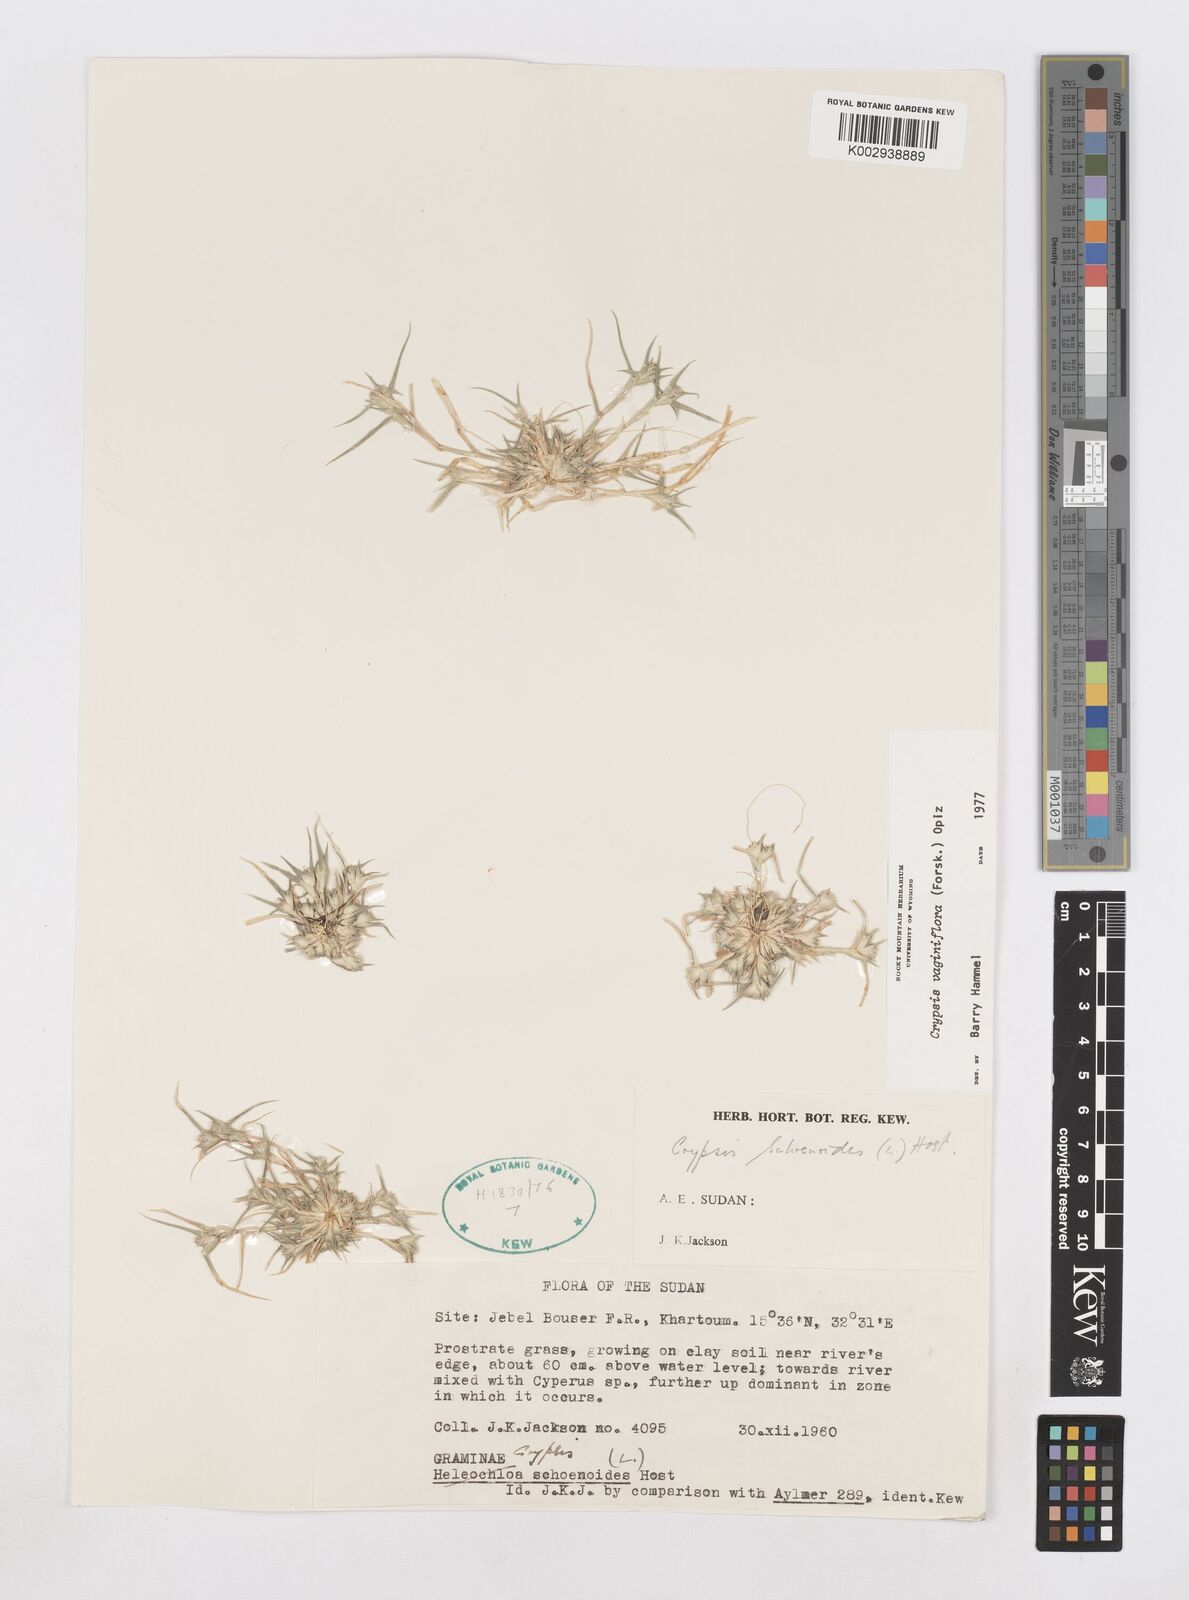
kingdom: Plantae
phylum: Tracheophyta
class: Liliopsida
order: Poales
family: Poaceae
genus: Sporobolus
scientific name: Sporobolus niliacus
